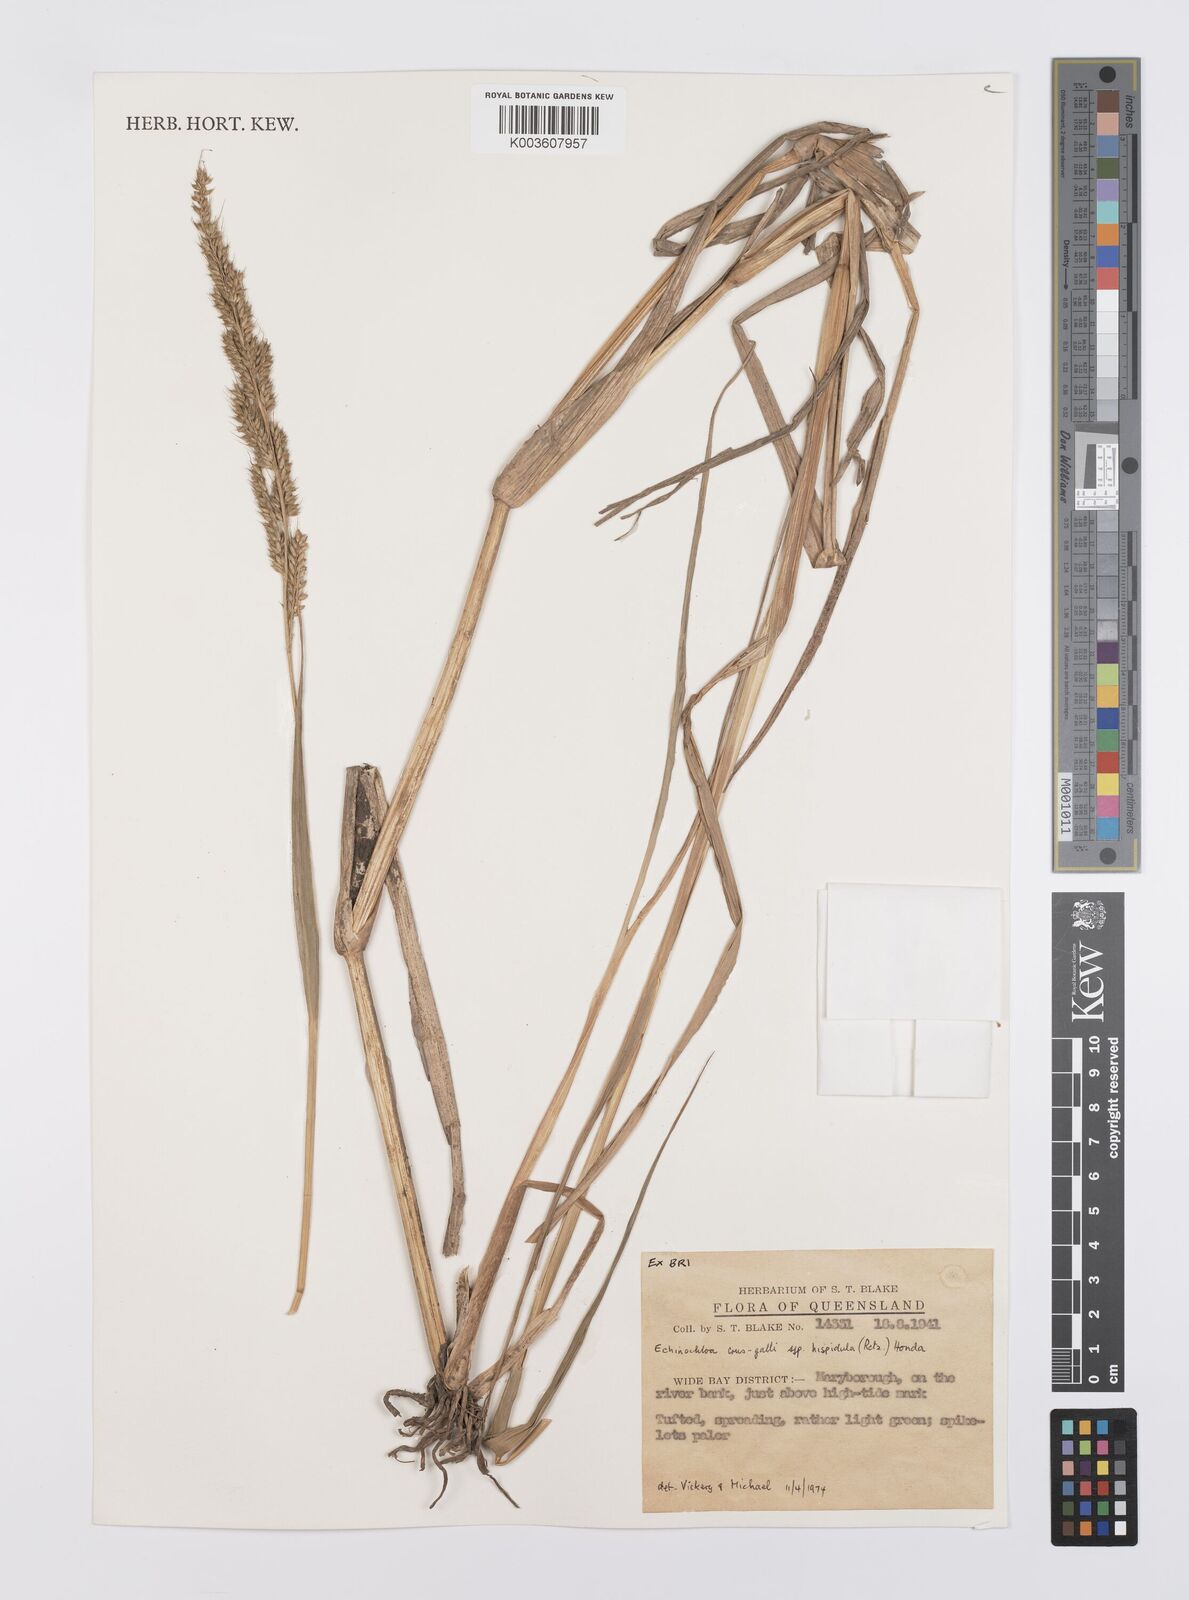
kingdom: Plantae
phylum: Tracheophyta
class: Liliopsida
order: Poales
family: Poaceae
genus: Echinochloa
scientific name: Echinochloa crus-galli
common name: Cockspur
